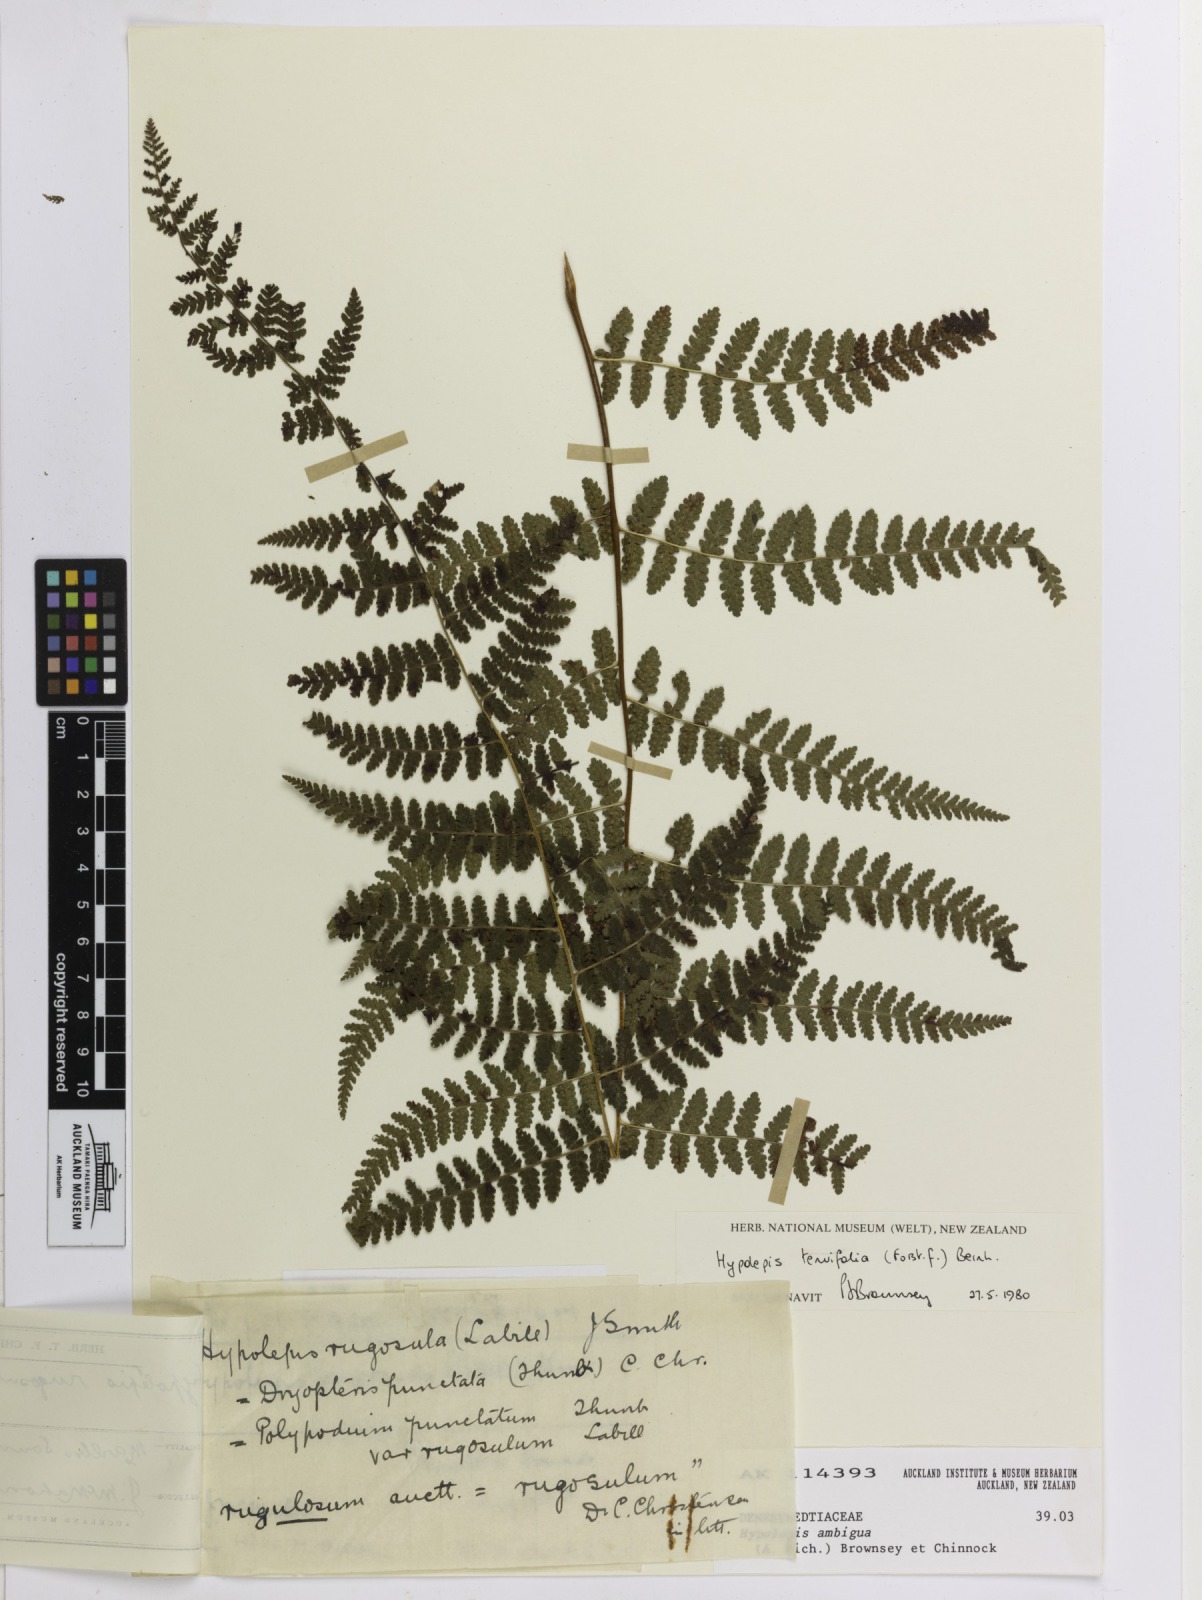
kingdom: Plantae
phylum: Tracheophyta
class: Polypodiopsida
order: Polypodiales
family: Dennstaedtiaceae
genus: Hypolepis
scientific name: Hypolepis ambigua
